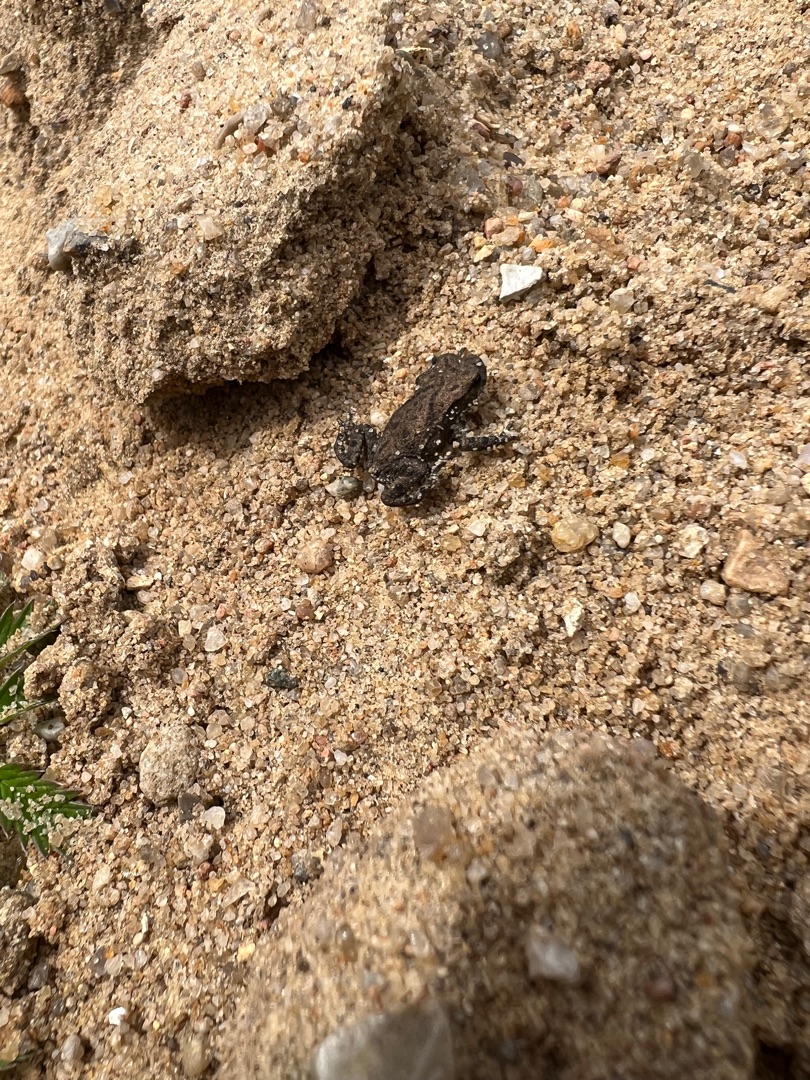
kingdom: Animalia
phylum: Chordata
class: Amphibia
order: Anura
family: Bufonidae
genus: Bufo
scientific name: Bufo bufo
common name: Skrubtudse
